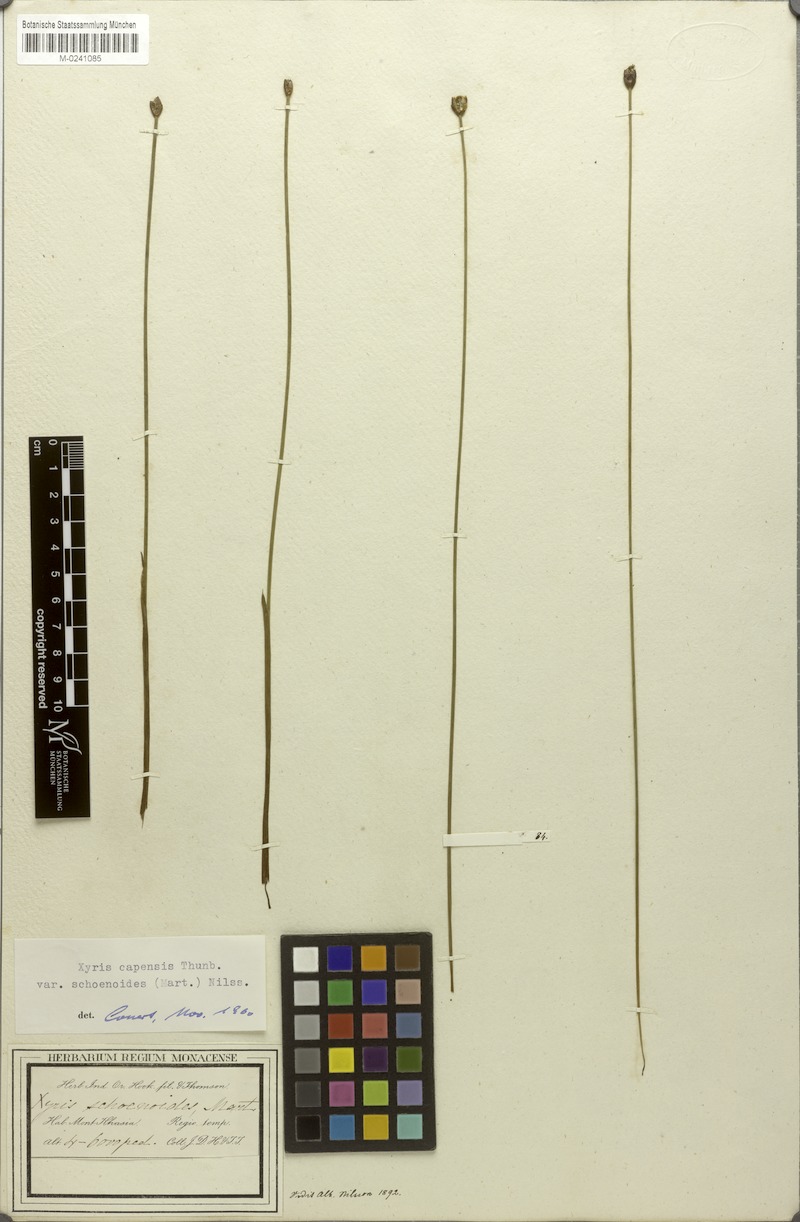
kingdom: Plantae
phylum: Tracheophyta
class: Liliopsida
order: Poales
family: Xyridaceae
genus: Xyris
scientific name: Xyris capensis
